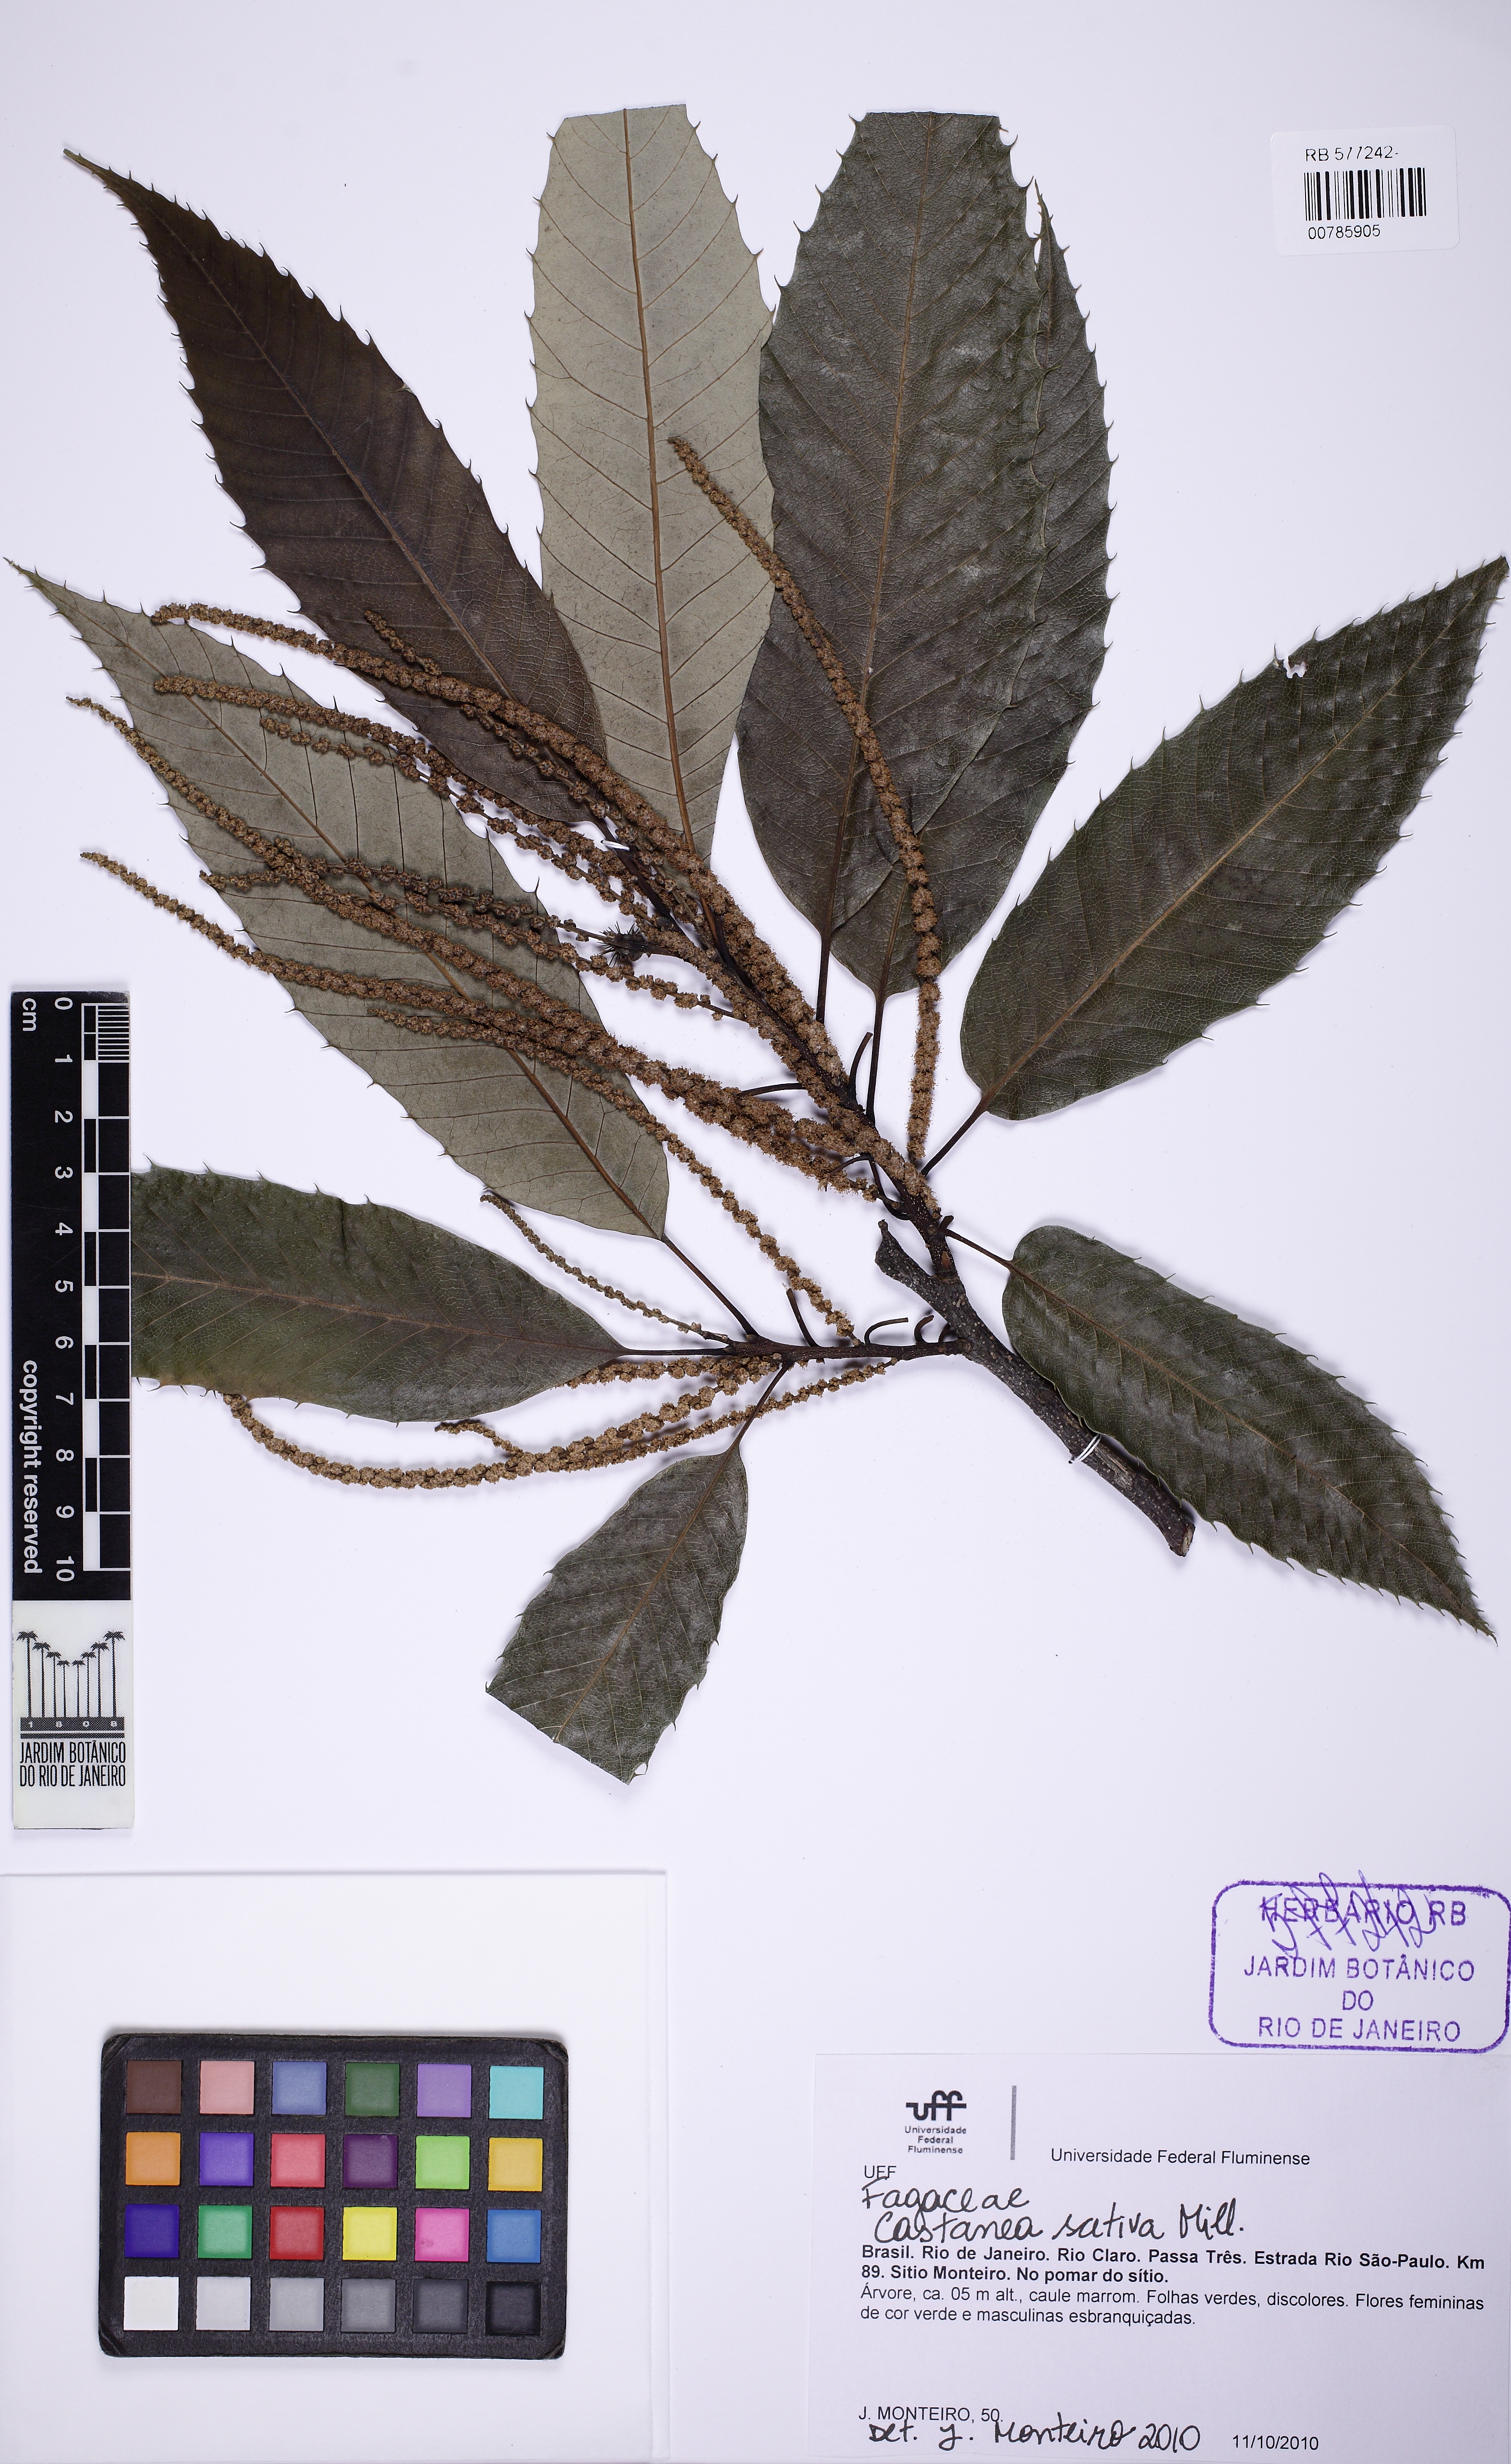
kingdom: Plantae
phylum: Tracheophyta
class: Magnoliopsida
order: Fagales
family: Fagaceae
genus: Castanea
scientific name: Castanea sativa
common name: Sweet chestnut
